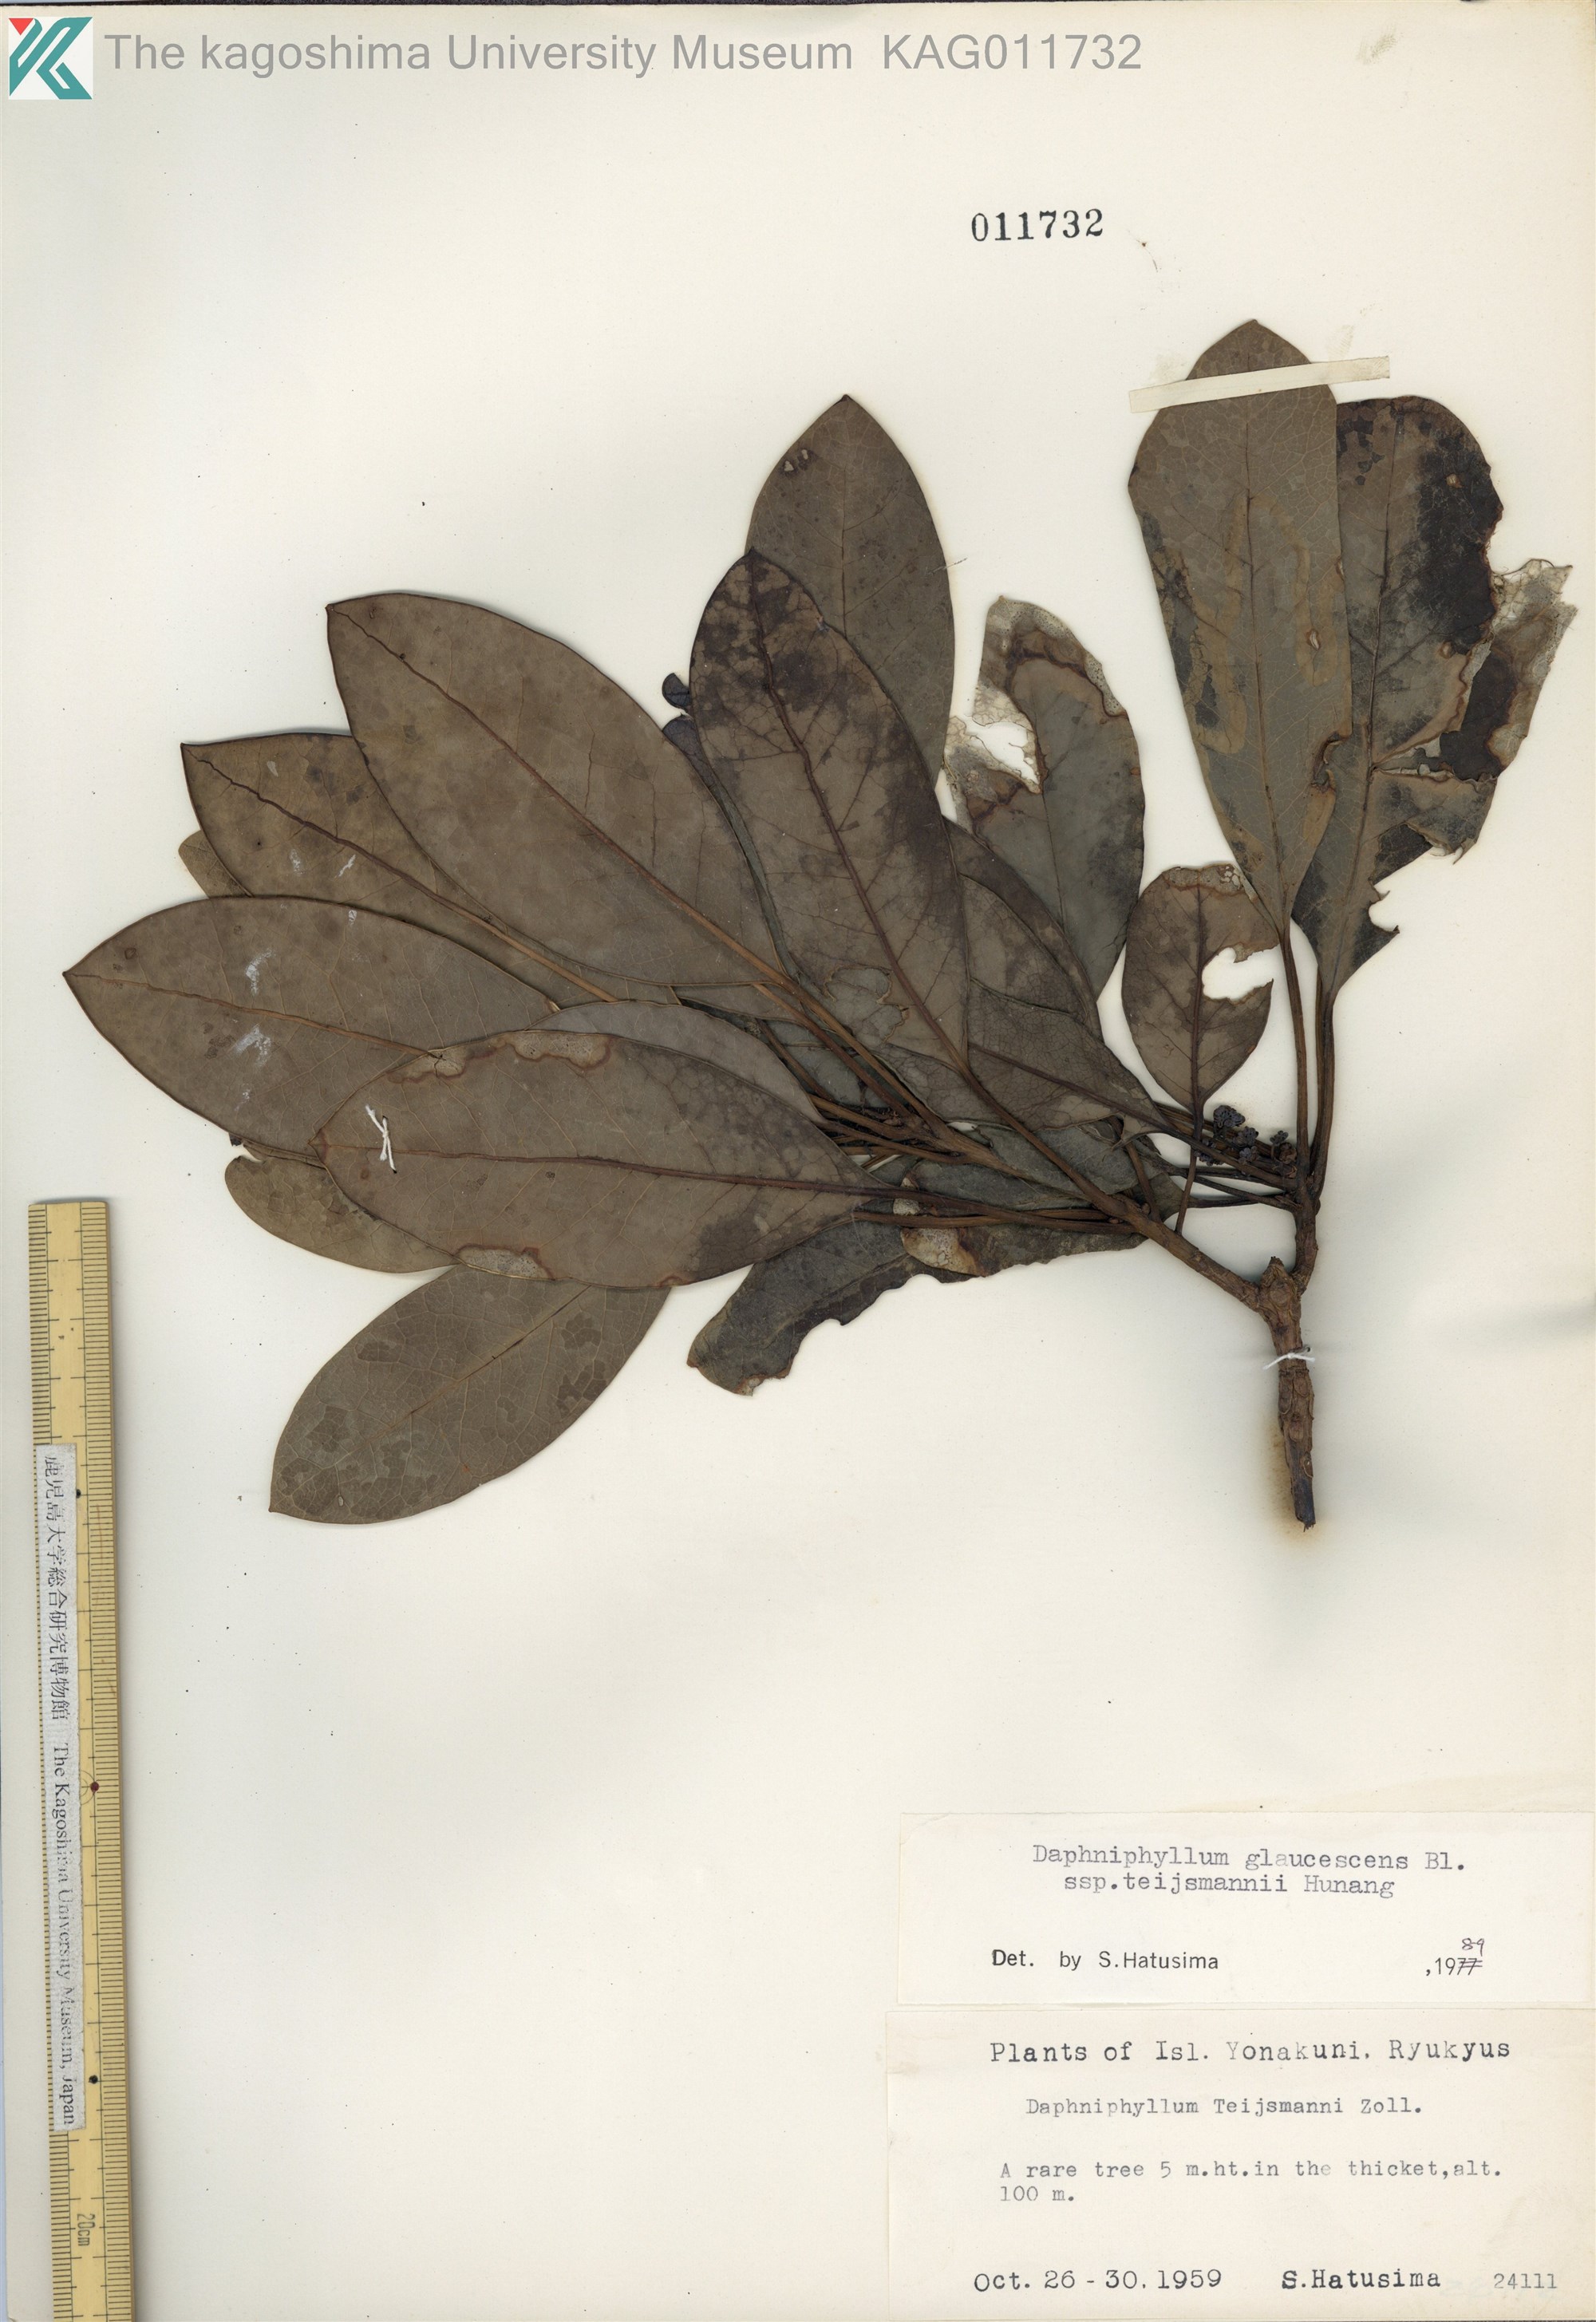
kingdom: Plantae
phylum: Tracheophyta
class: Magnoliopsida
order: Saxifragales
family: Daphniphyllaceae
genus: Daphniphyllum
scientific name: Daphniphyllum teijsmannii
